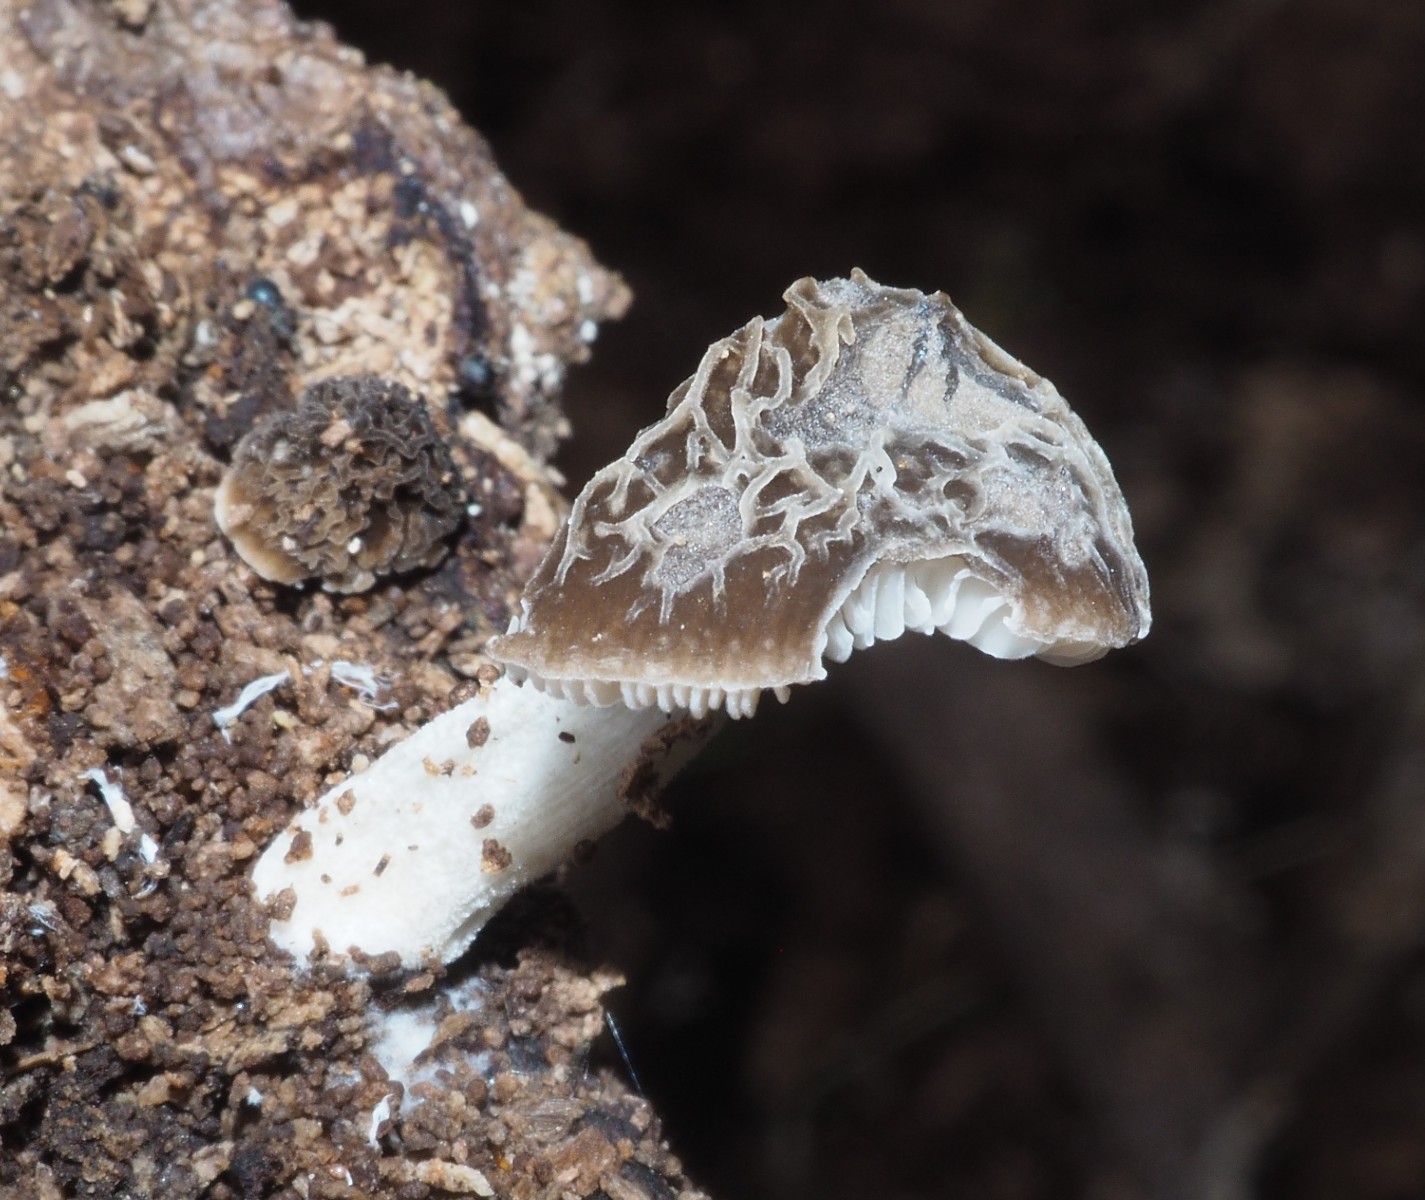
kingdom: Fungi
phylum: Basidiomycota
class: Agaricomycetes
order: Agaricales
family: Pluteaceae
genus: Pluteus
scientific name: Pluteus
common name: gråstokket skærmhat
